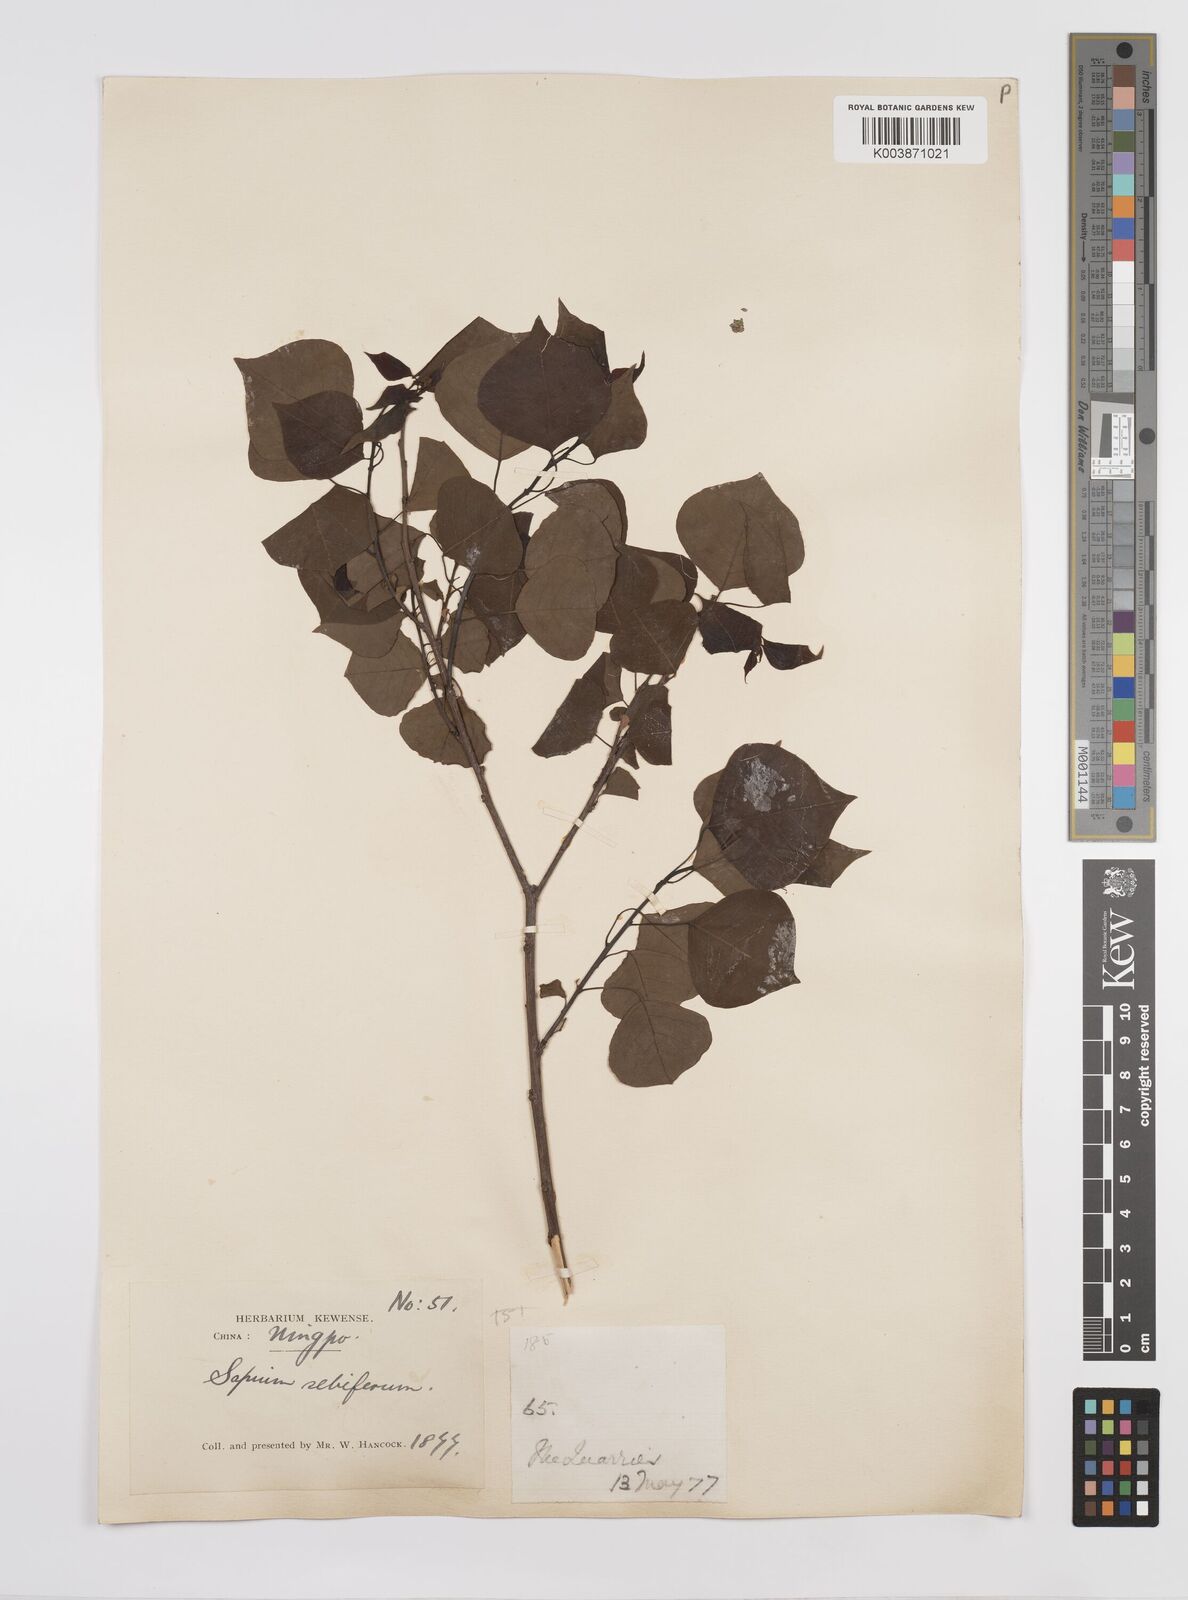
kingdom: Plantae
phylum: Tracheophyta
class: Magnoliopsida
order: Malpighiales
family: Euphorbiaceae
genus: Triadica
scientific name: Triadica sebifera
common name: Chinese tallow
